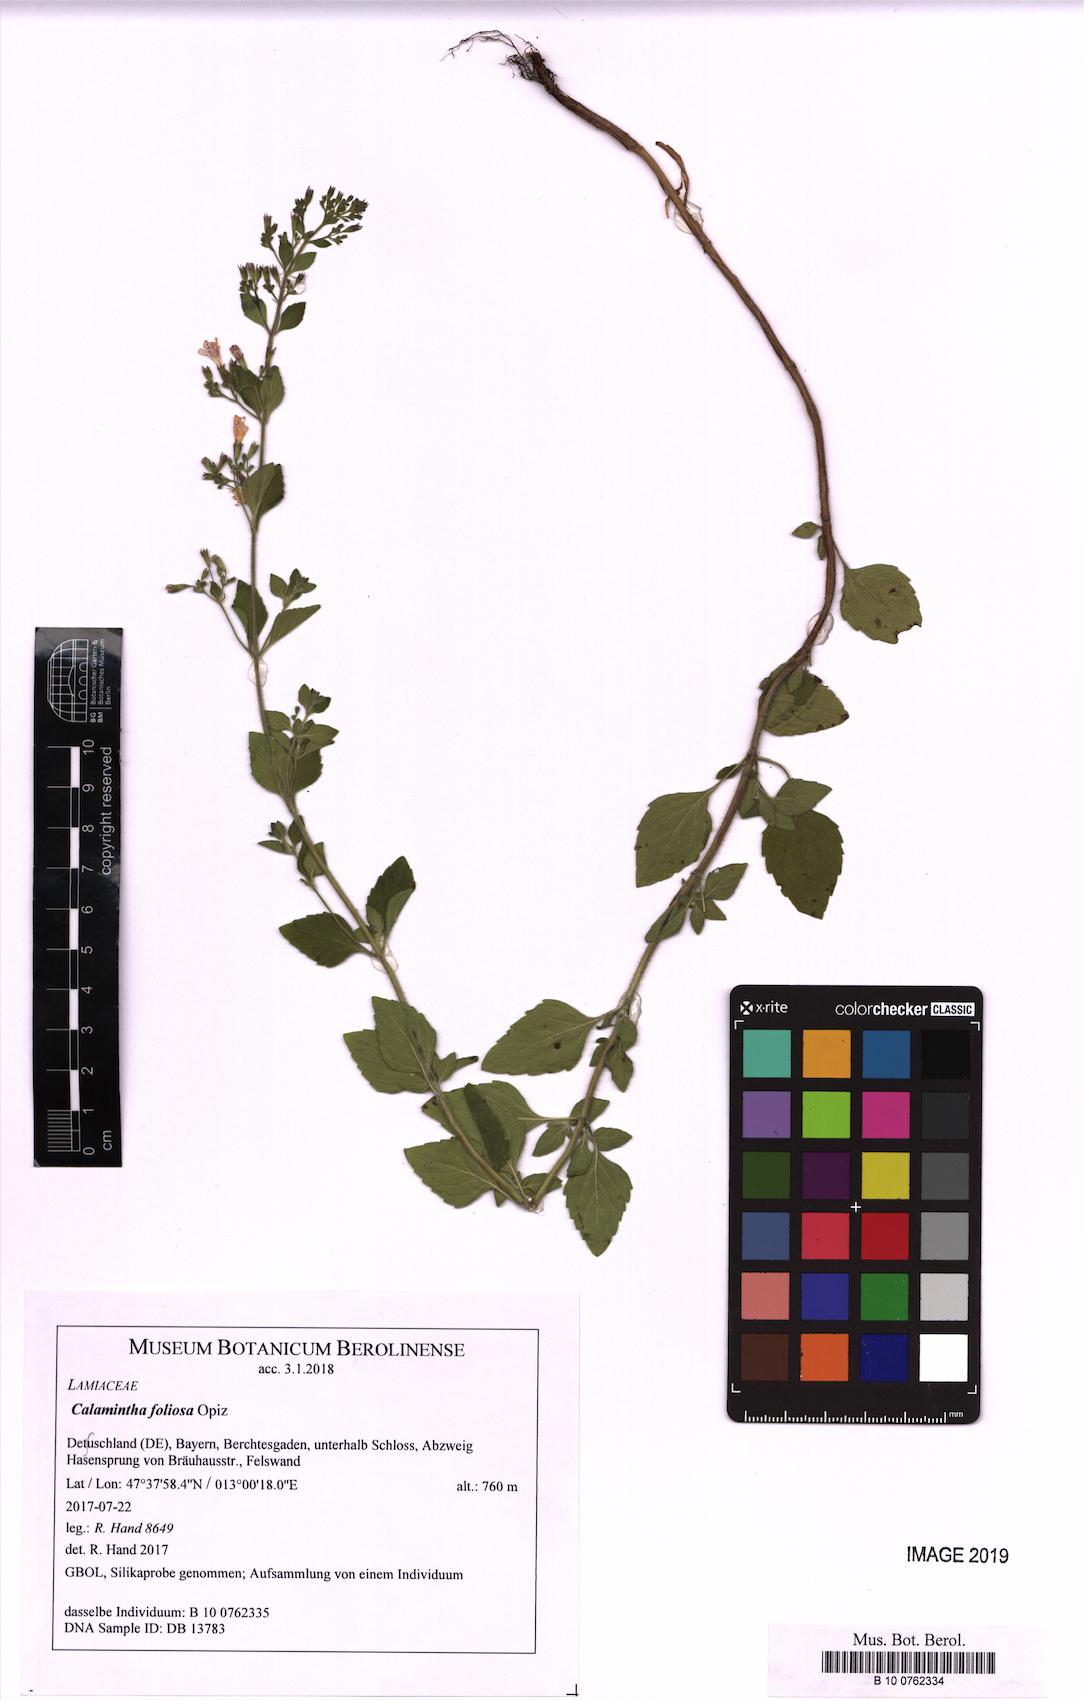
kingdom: Plantae
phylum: Tracheophyta
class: Magnoliopsida
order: Lamiales
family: Lamiaceae
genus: Clinopodium
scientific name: Clinopodium Calamintha foliosa
